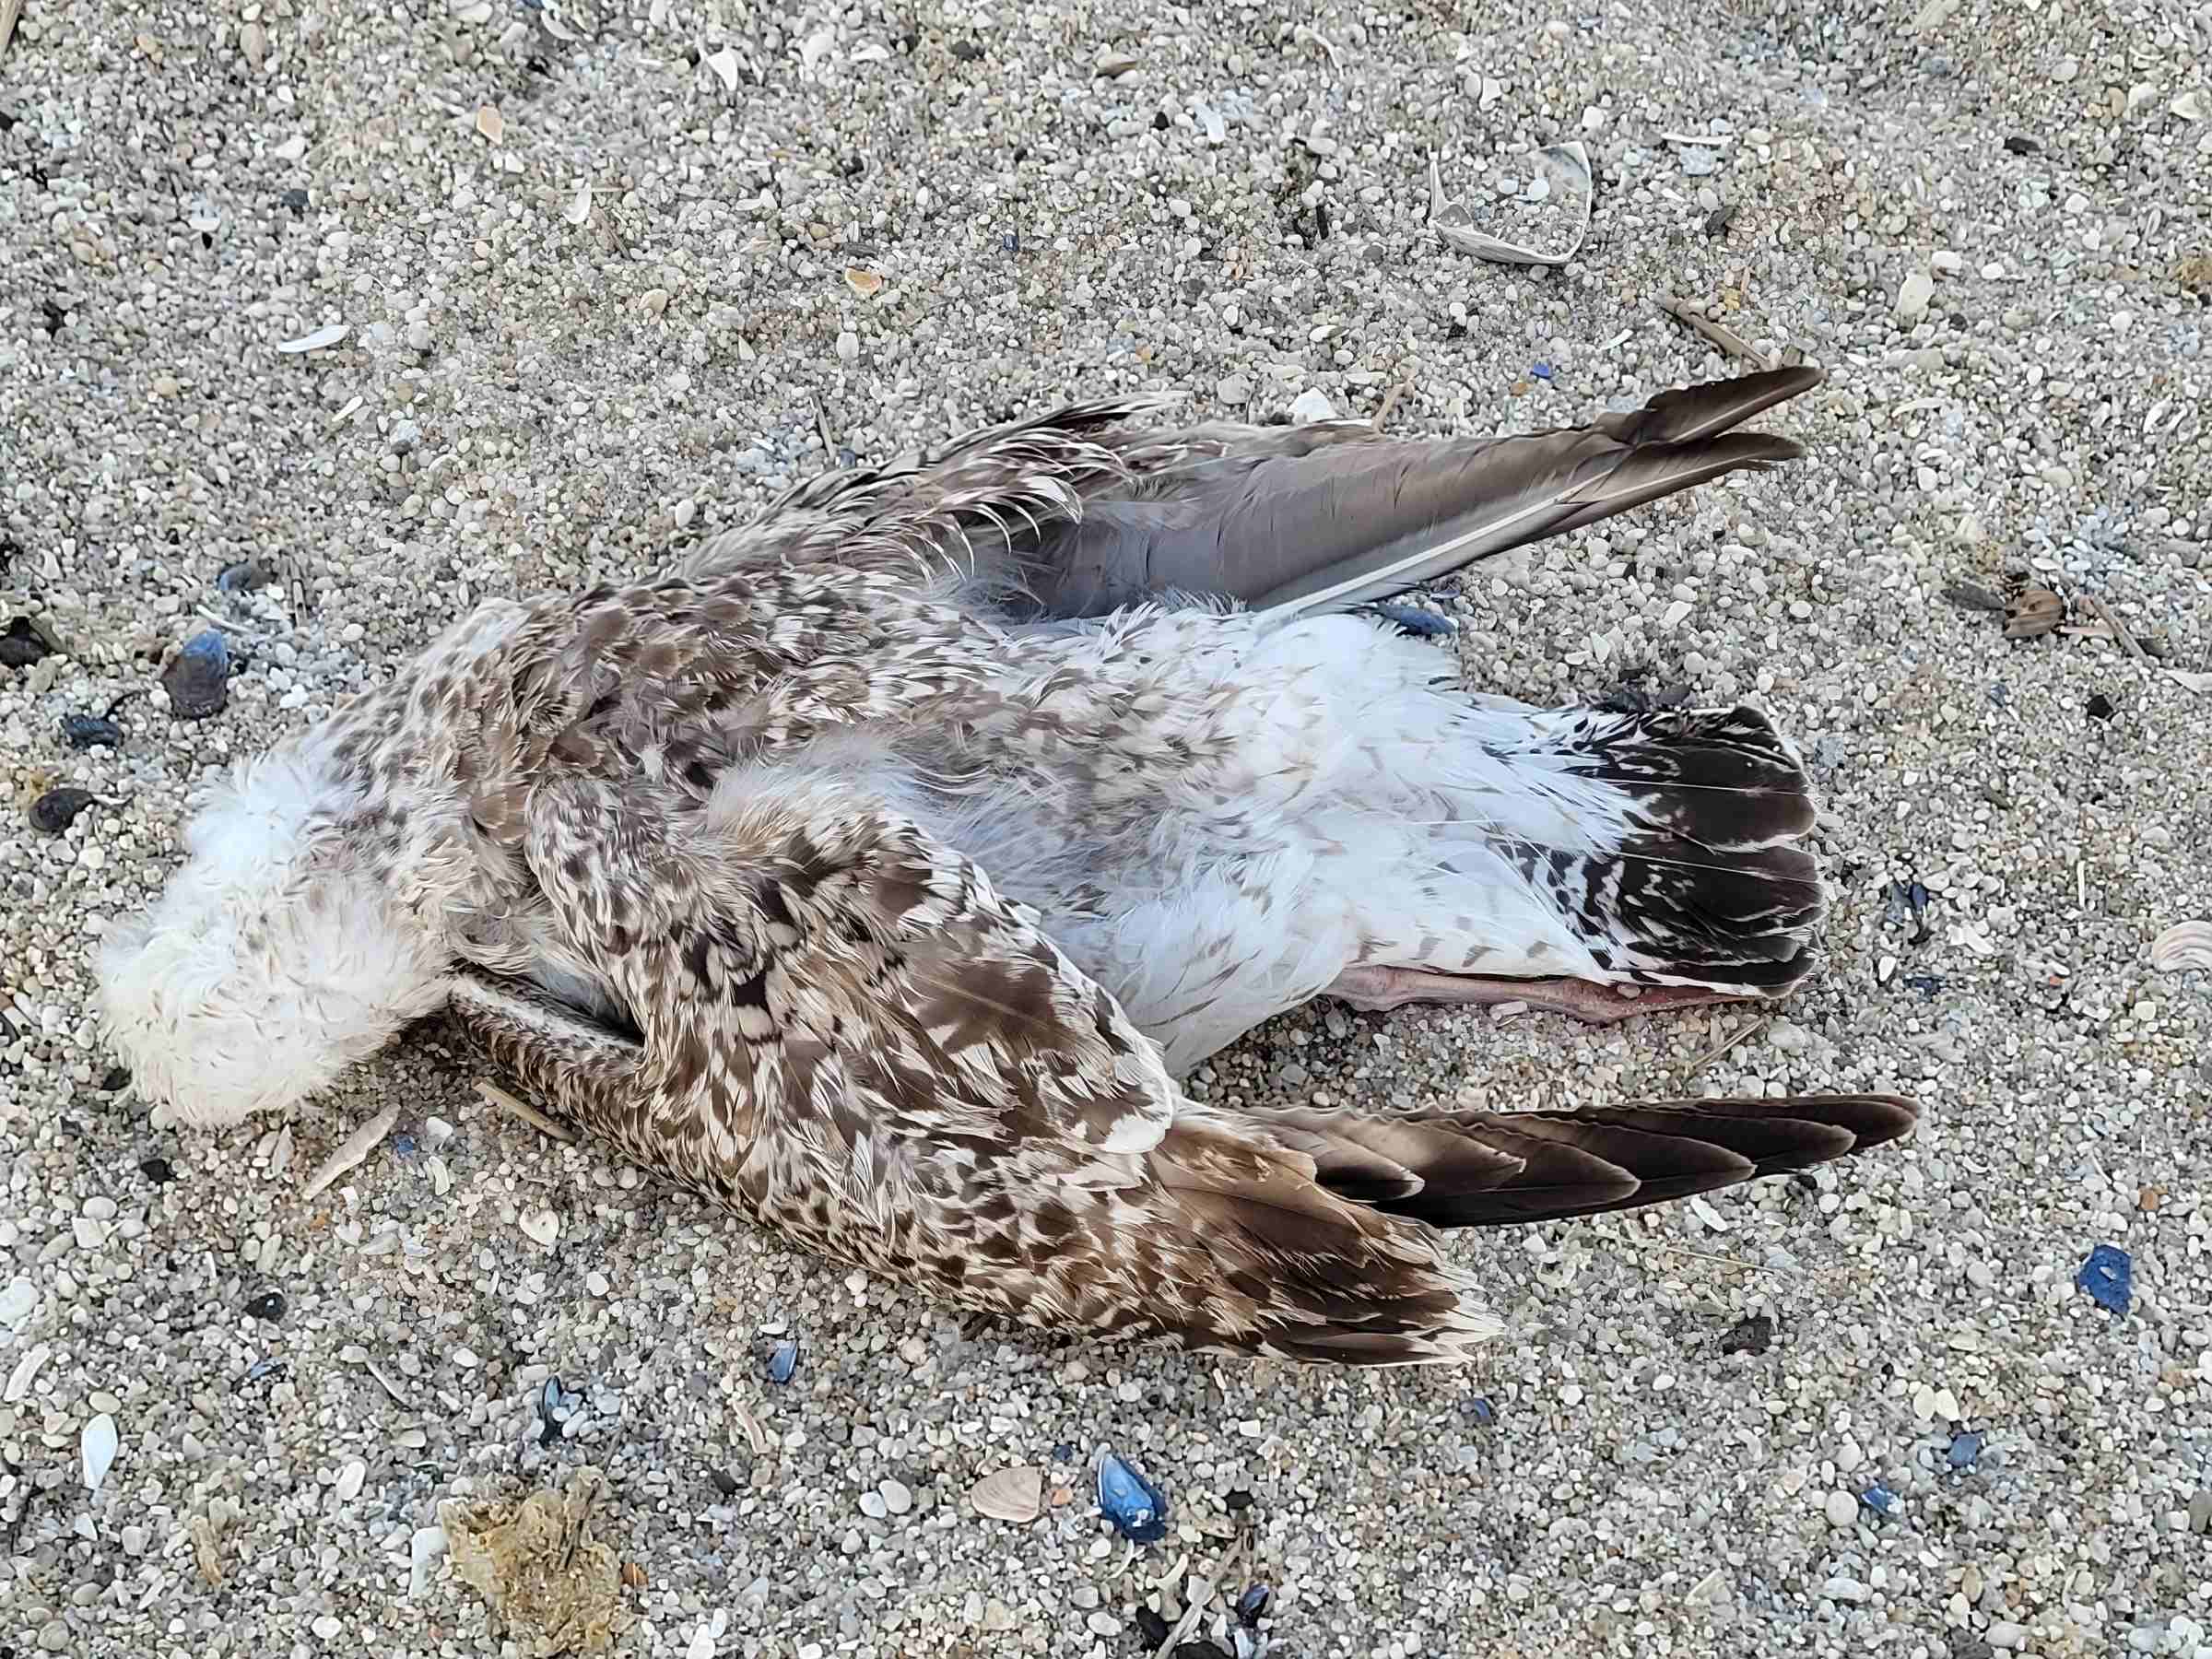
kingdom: Animalia
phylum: Chordata
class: Aves
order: Charadriiformes
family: Laridae
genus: Larus
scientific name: Larus marinus
